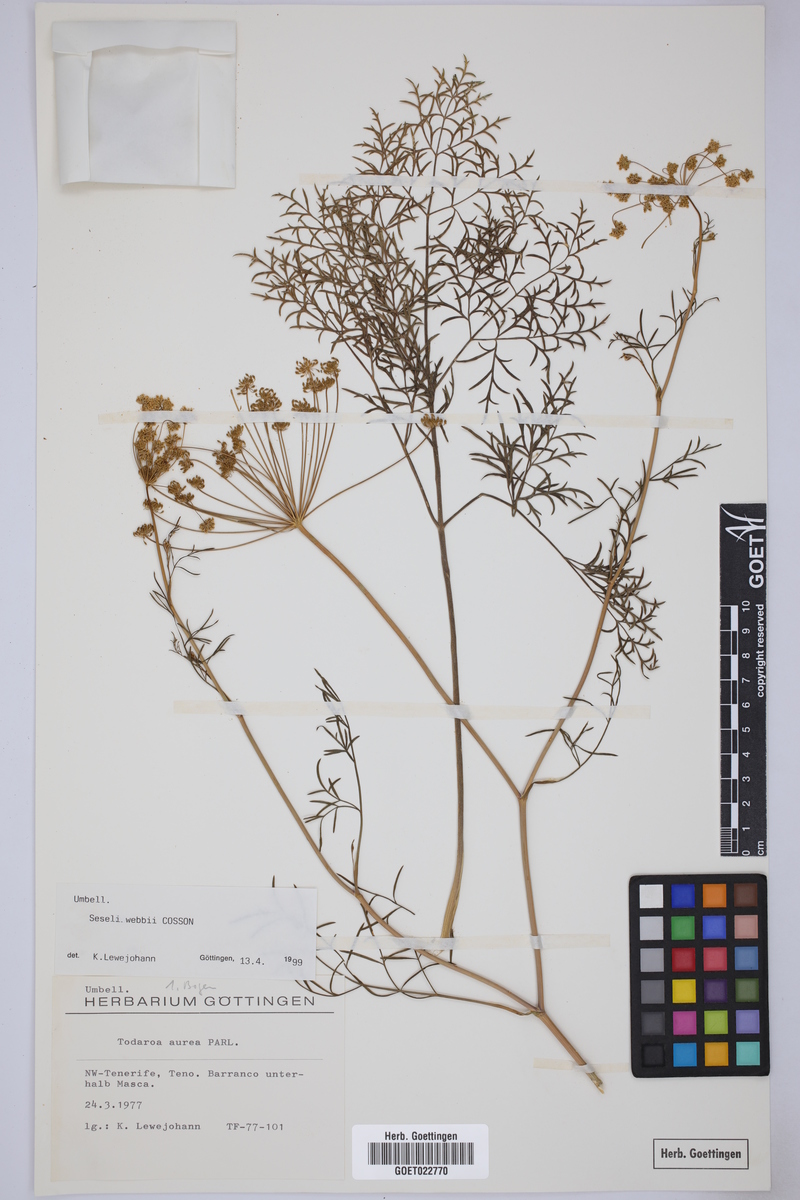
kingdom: Plantae
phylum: Tracheophyta
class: Magnoliopsida
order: Apiales
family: Apiaceae
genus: Rutheopsis
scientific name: Rutheopsis tortuosa
